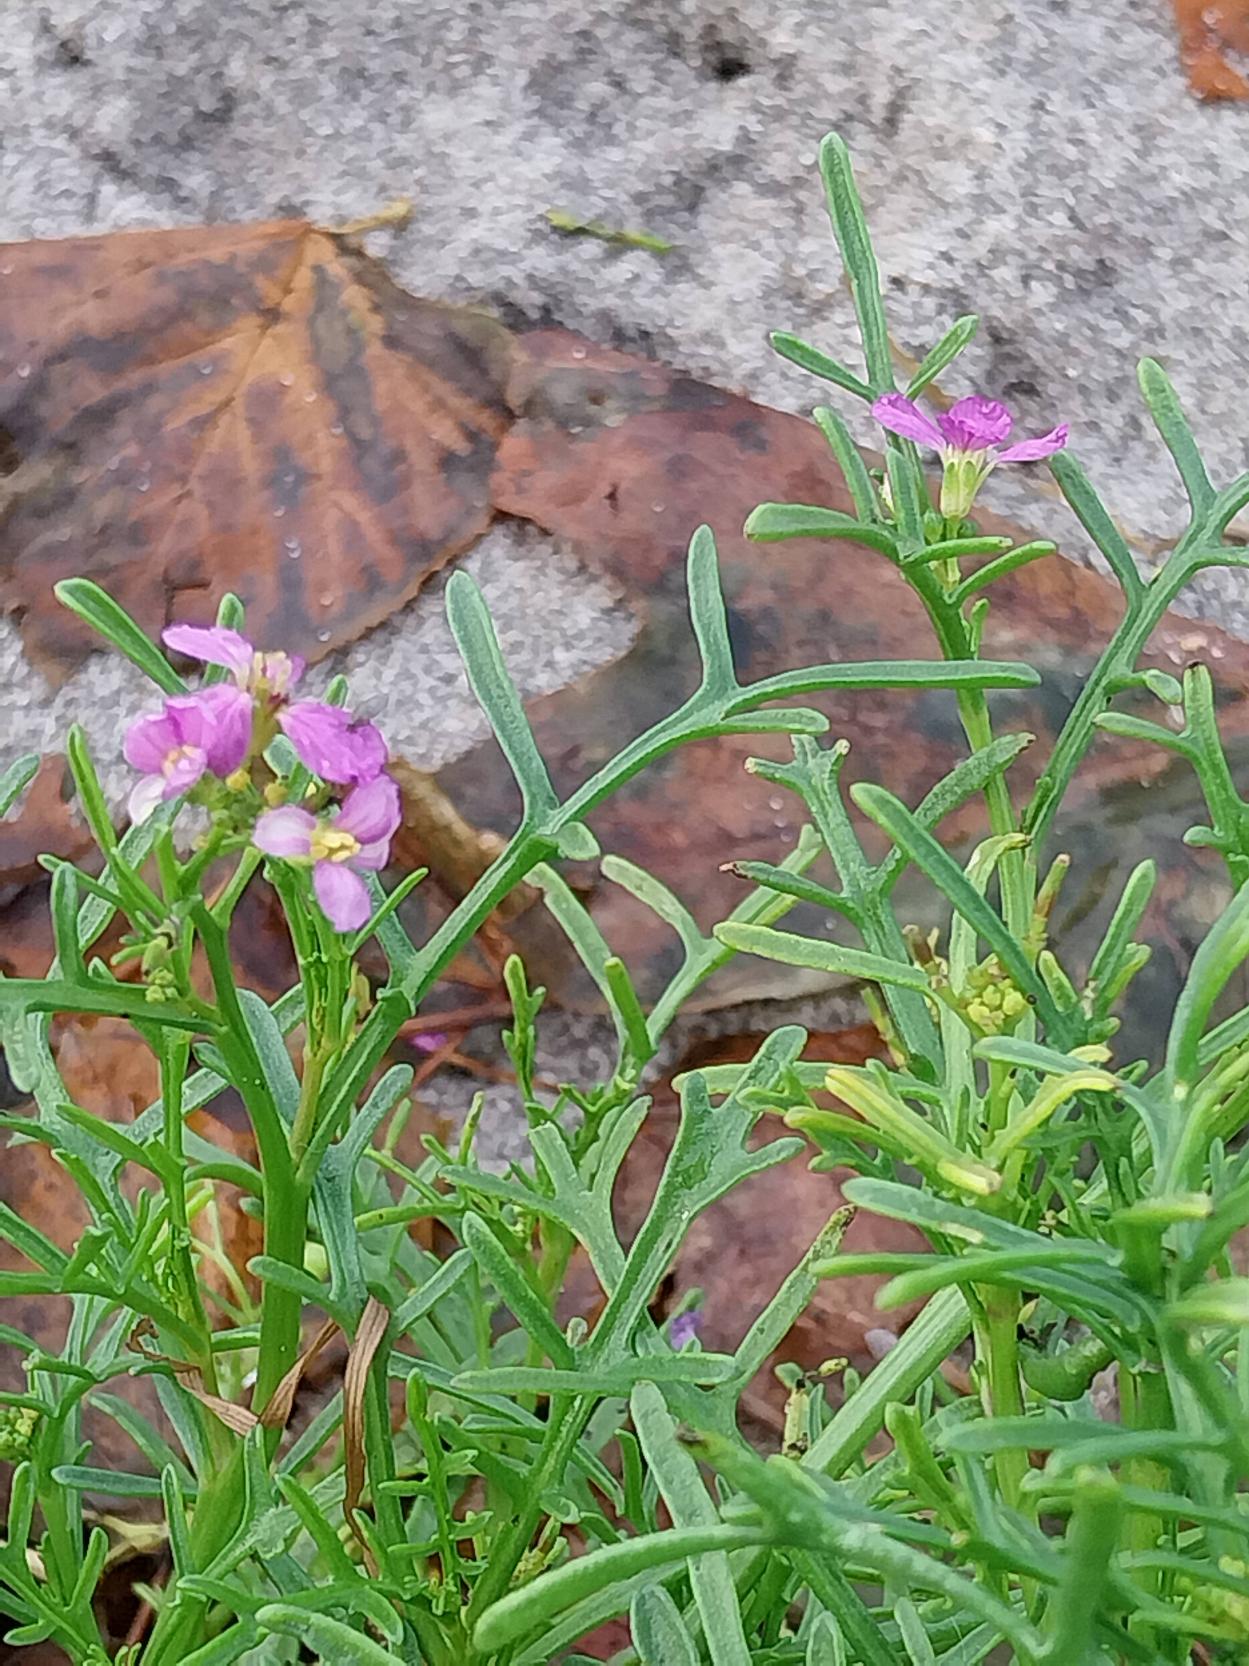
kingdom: Plantae
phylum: Tracheophyta
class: Magnoliopsida
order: Brassicales
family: Brassicaceae
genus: Cakile
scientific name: Cakile maritima
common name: Strandsennep
